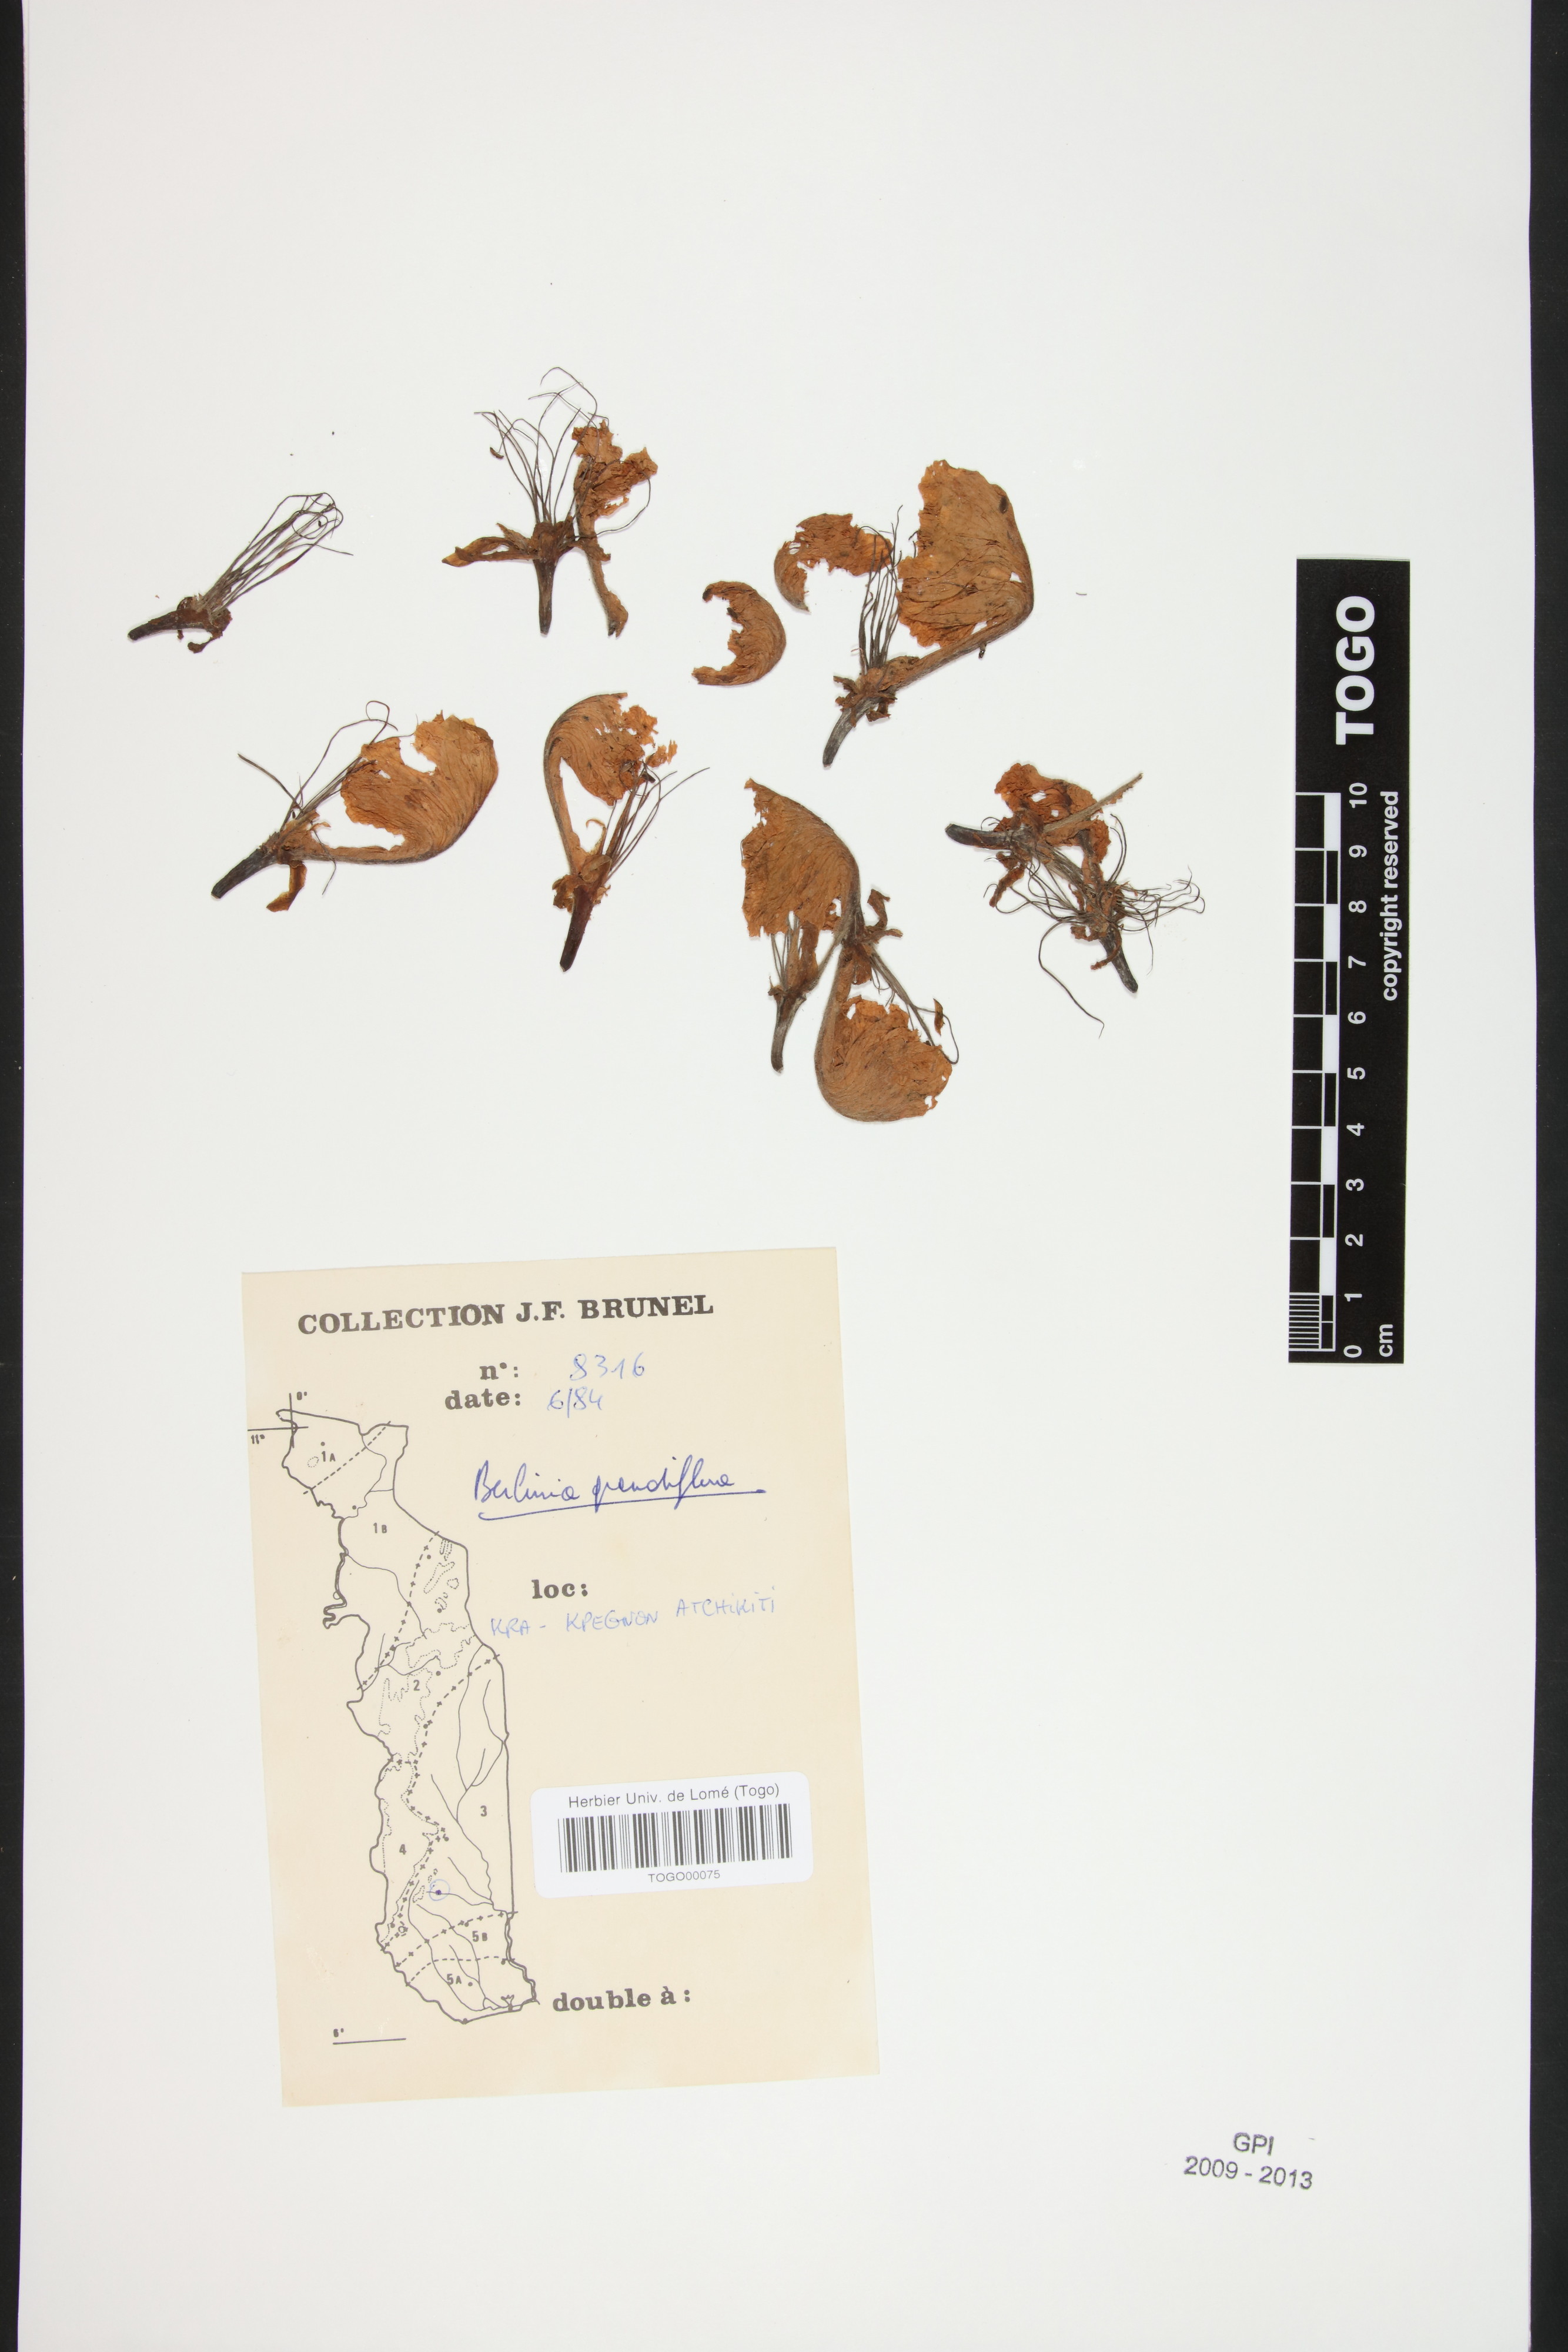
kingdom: Plantae
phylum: Tracheophyta
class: Magnoliopsida
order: Fabales
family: Fabaceae
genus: Berlinia
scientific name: Berlinia grandiflora
